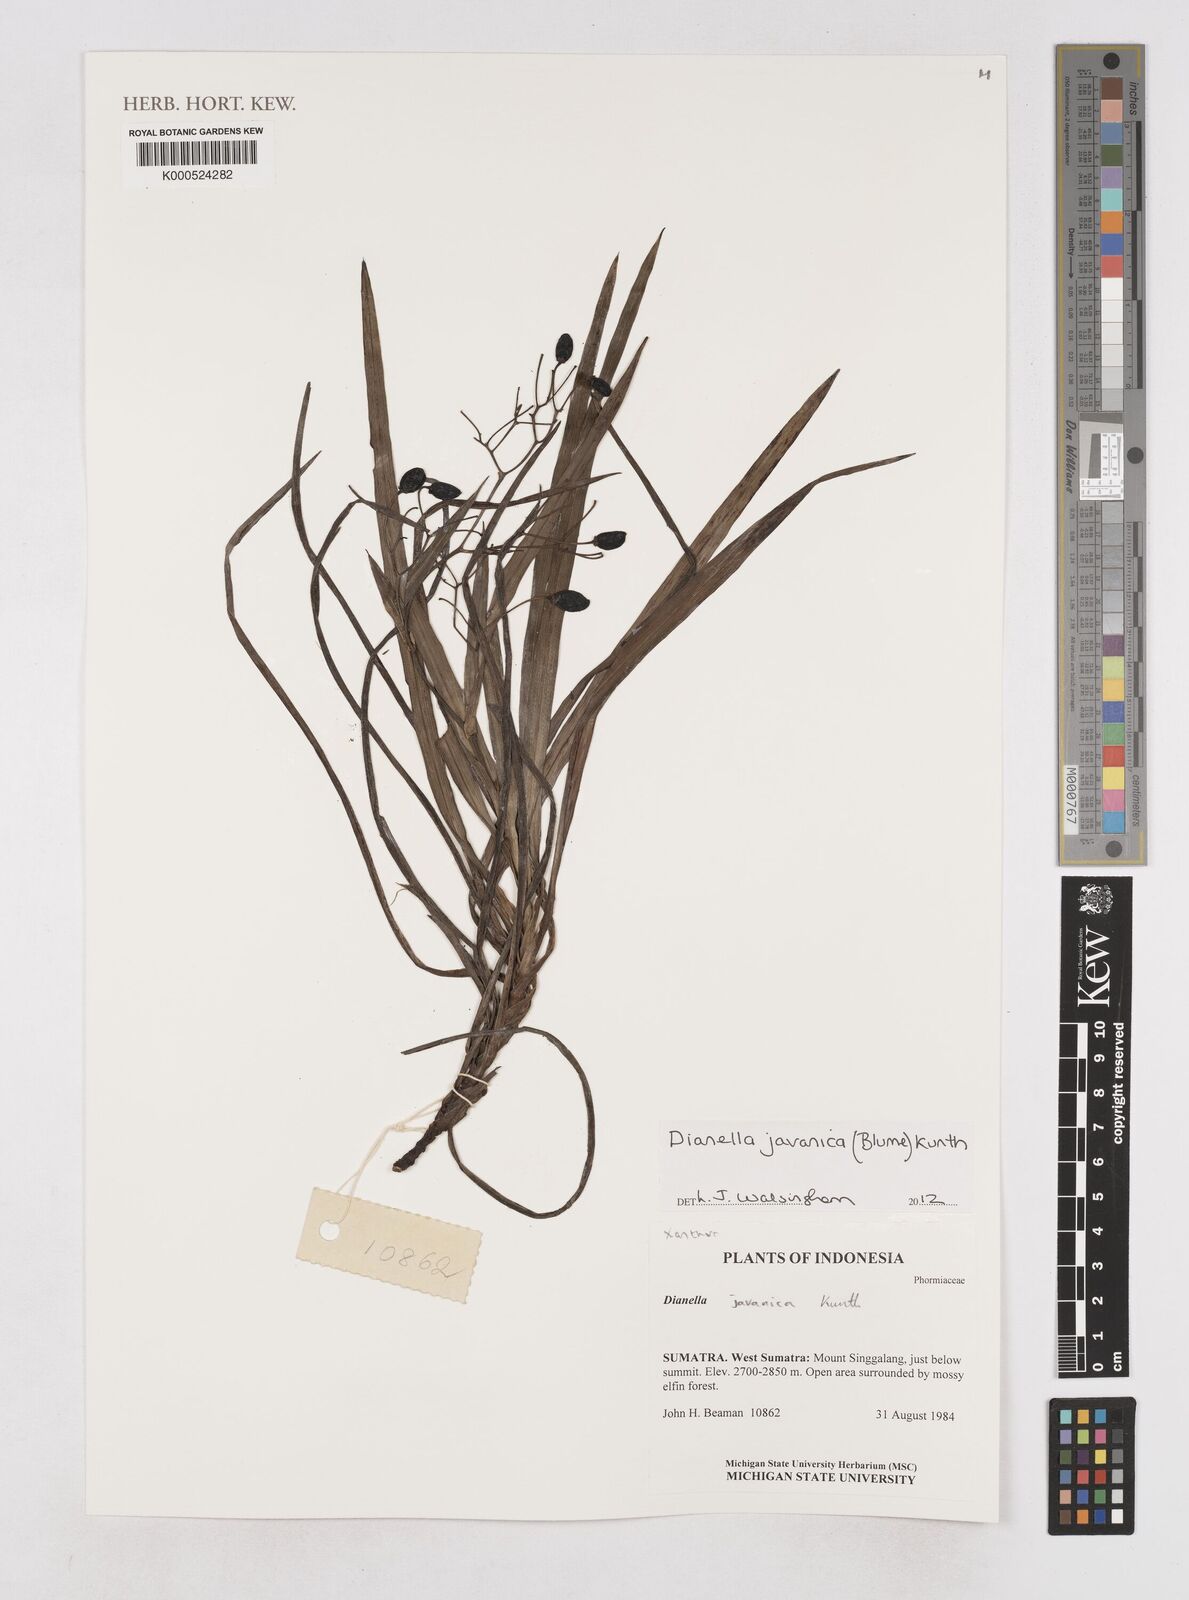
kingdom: Plantae
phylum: Tracheophyta
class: Liliopsida
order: Asparagales
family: Asphodelaceae
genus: Rhuacophila
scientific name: Rhuacophila javanica
